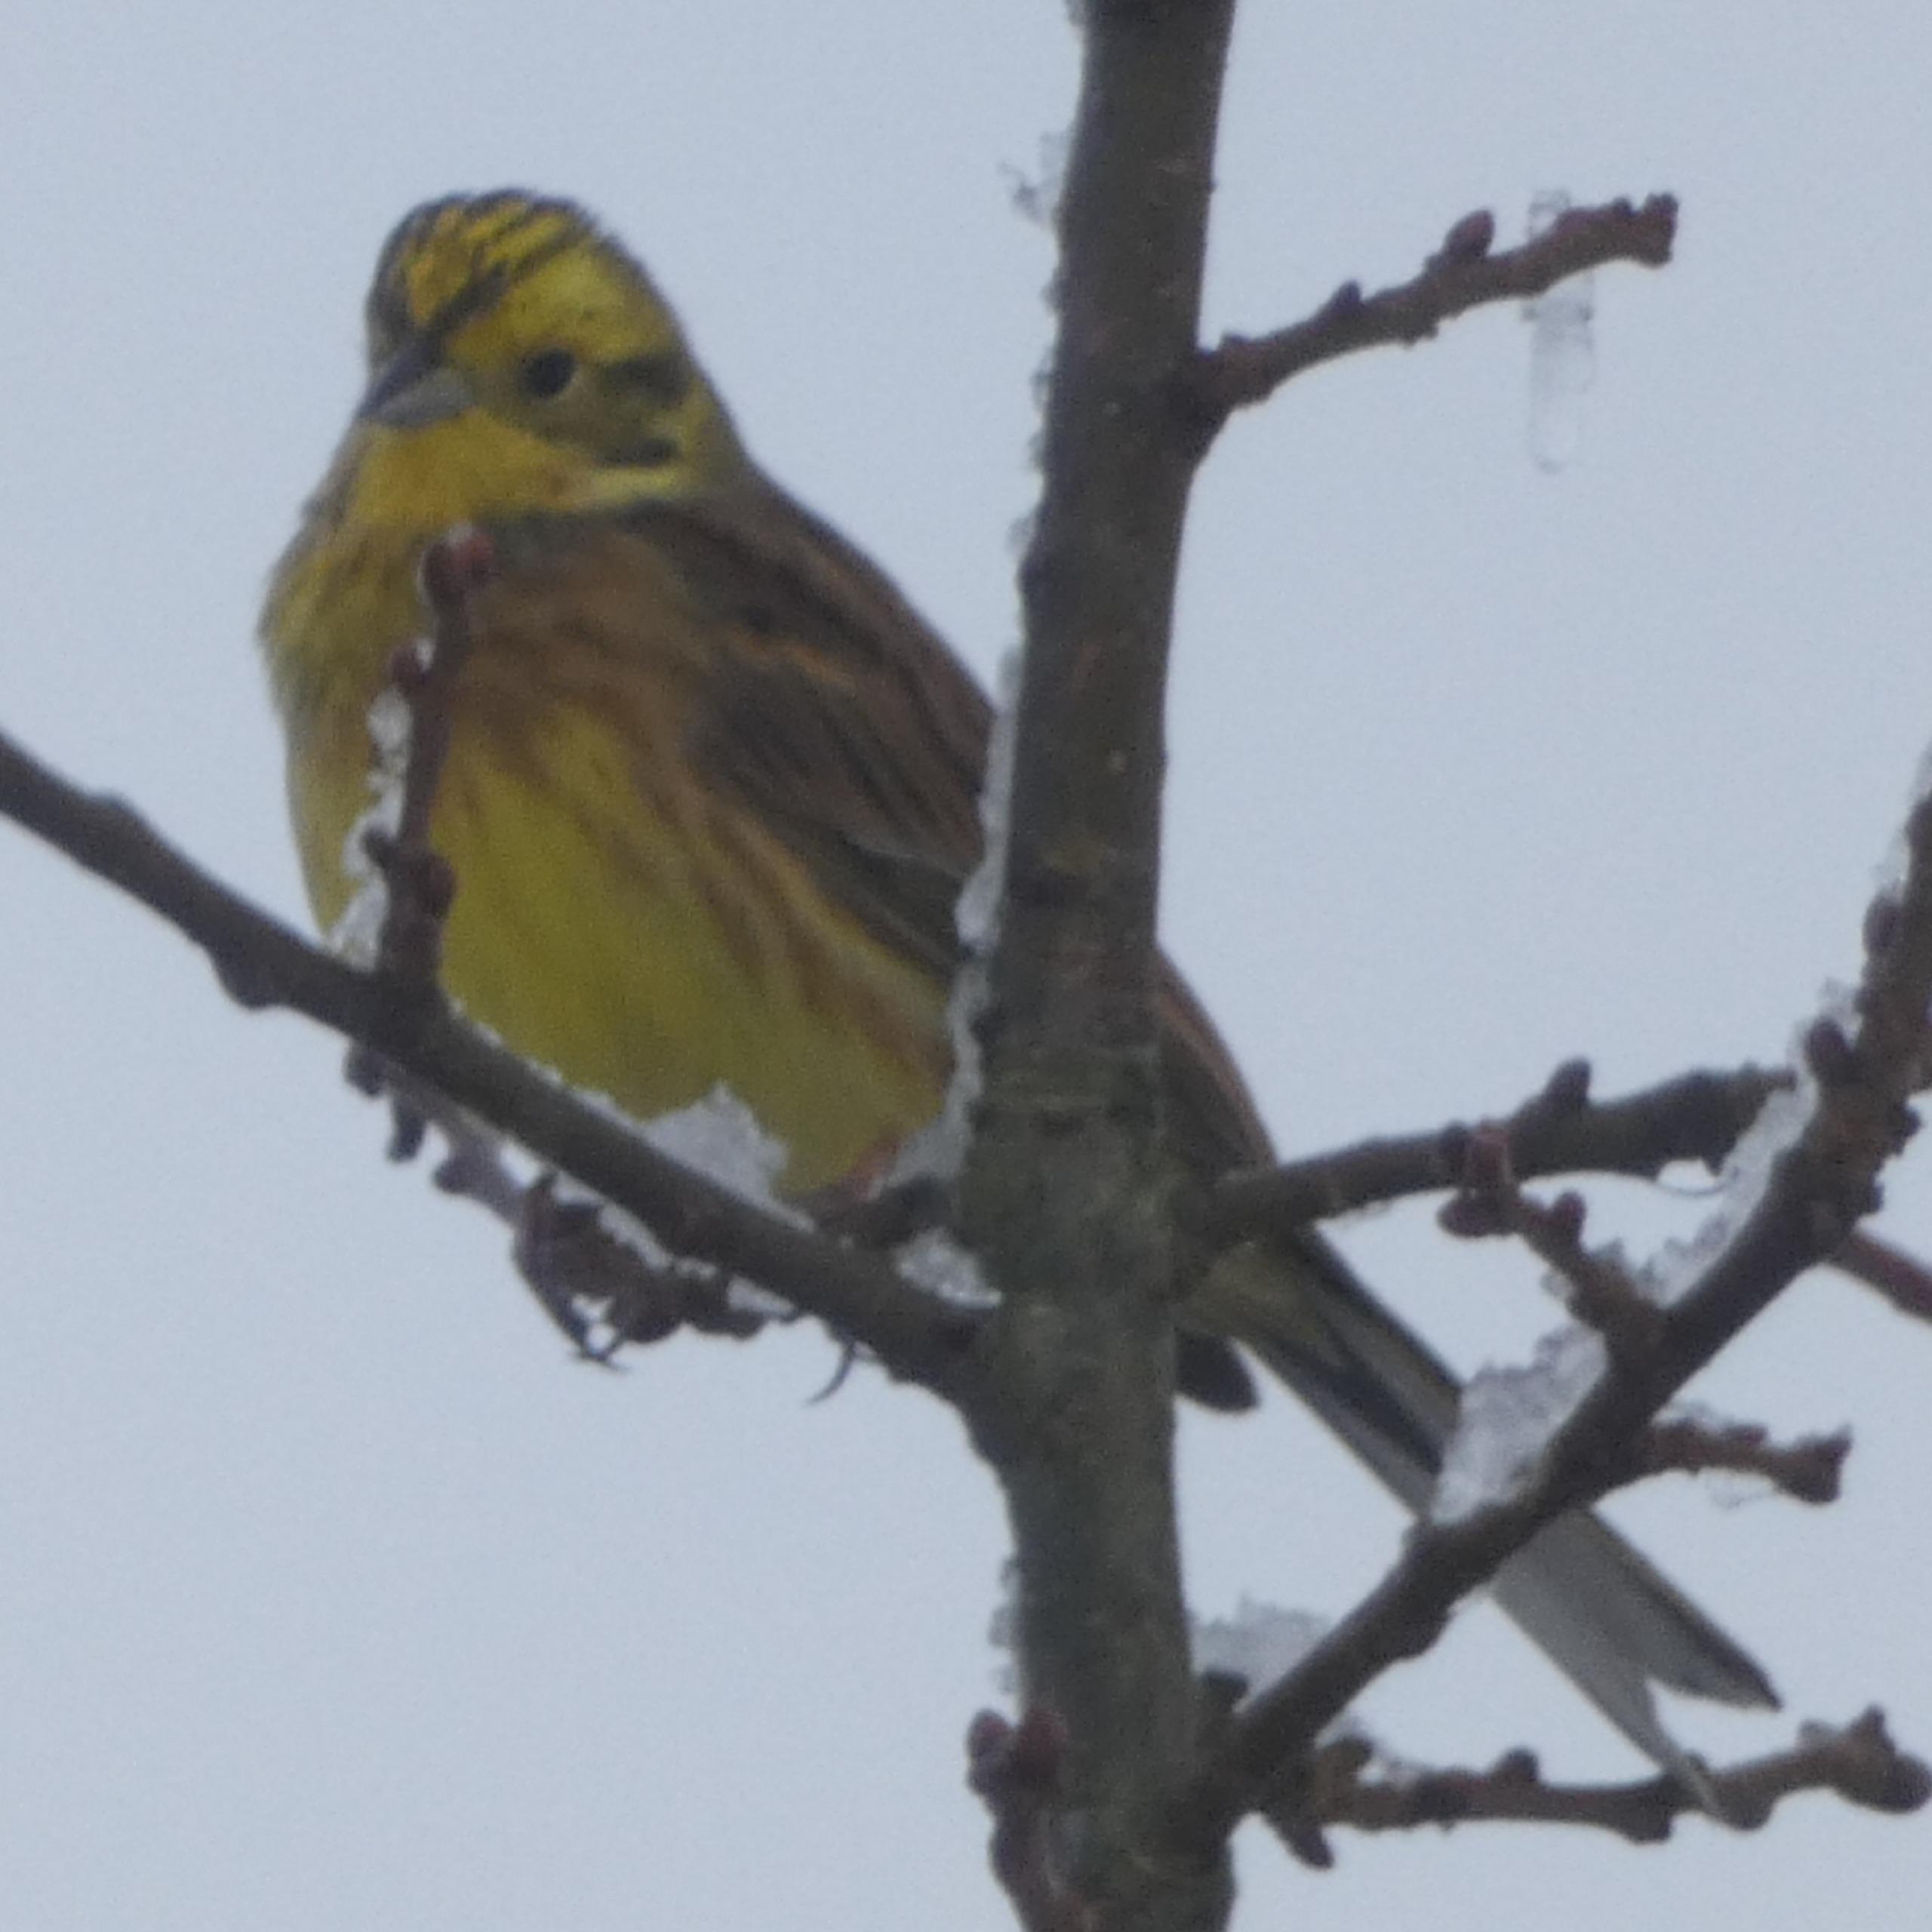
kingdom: Animalia
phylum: Chordata
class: Aves
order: Passeriformes
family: Emberizidae
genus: Emberiza
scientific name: Emberiza citrinella
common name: Gulspurv
